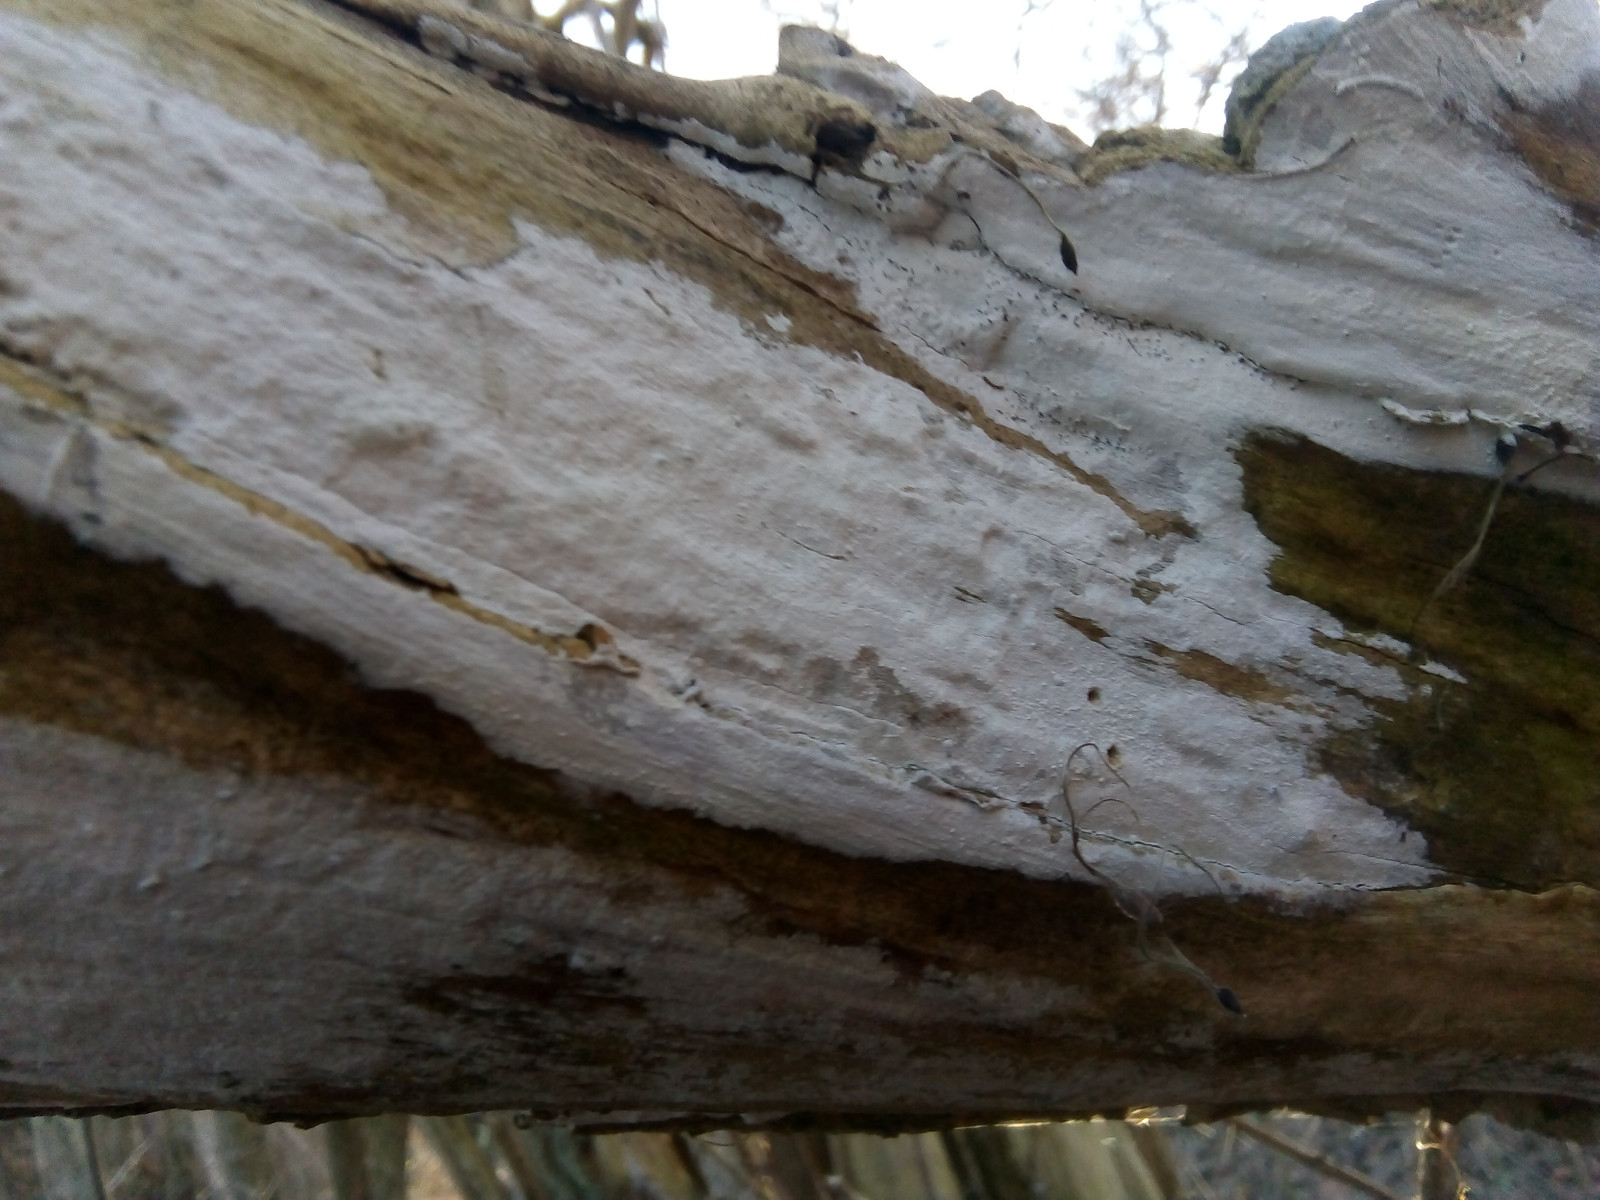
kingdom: Fungi
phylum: Basidiomycota
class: Agaricomycetes
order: Corticiales
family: Corticiaceae
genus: Lyomyces
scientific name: Lyomyces sambuci
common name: almindelig hyldehinde
